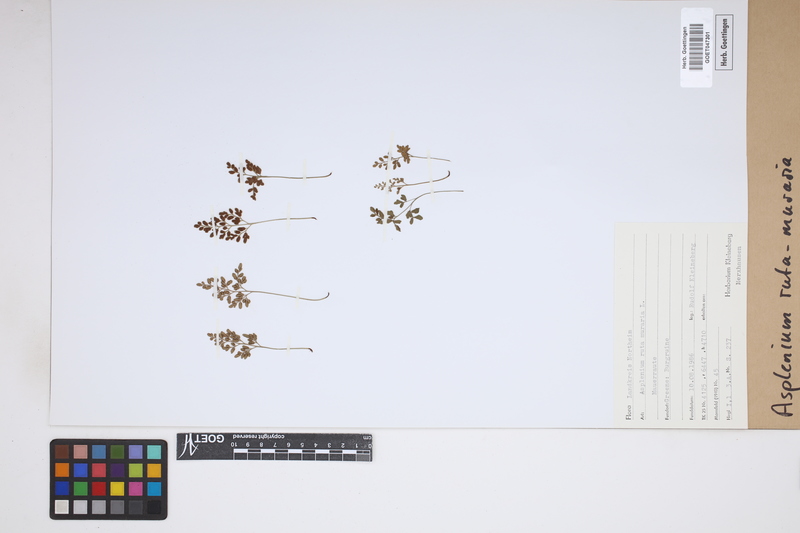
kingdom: Plantae
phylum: Tracheophyta
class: Polypodiopsida
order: Polypodiales
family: Aspleniaceae
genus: Asplenium
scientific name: Asplenium ruta-muraria
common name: Wall-rue
